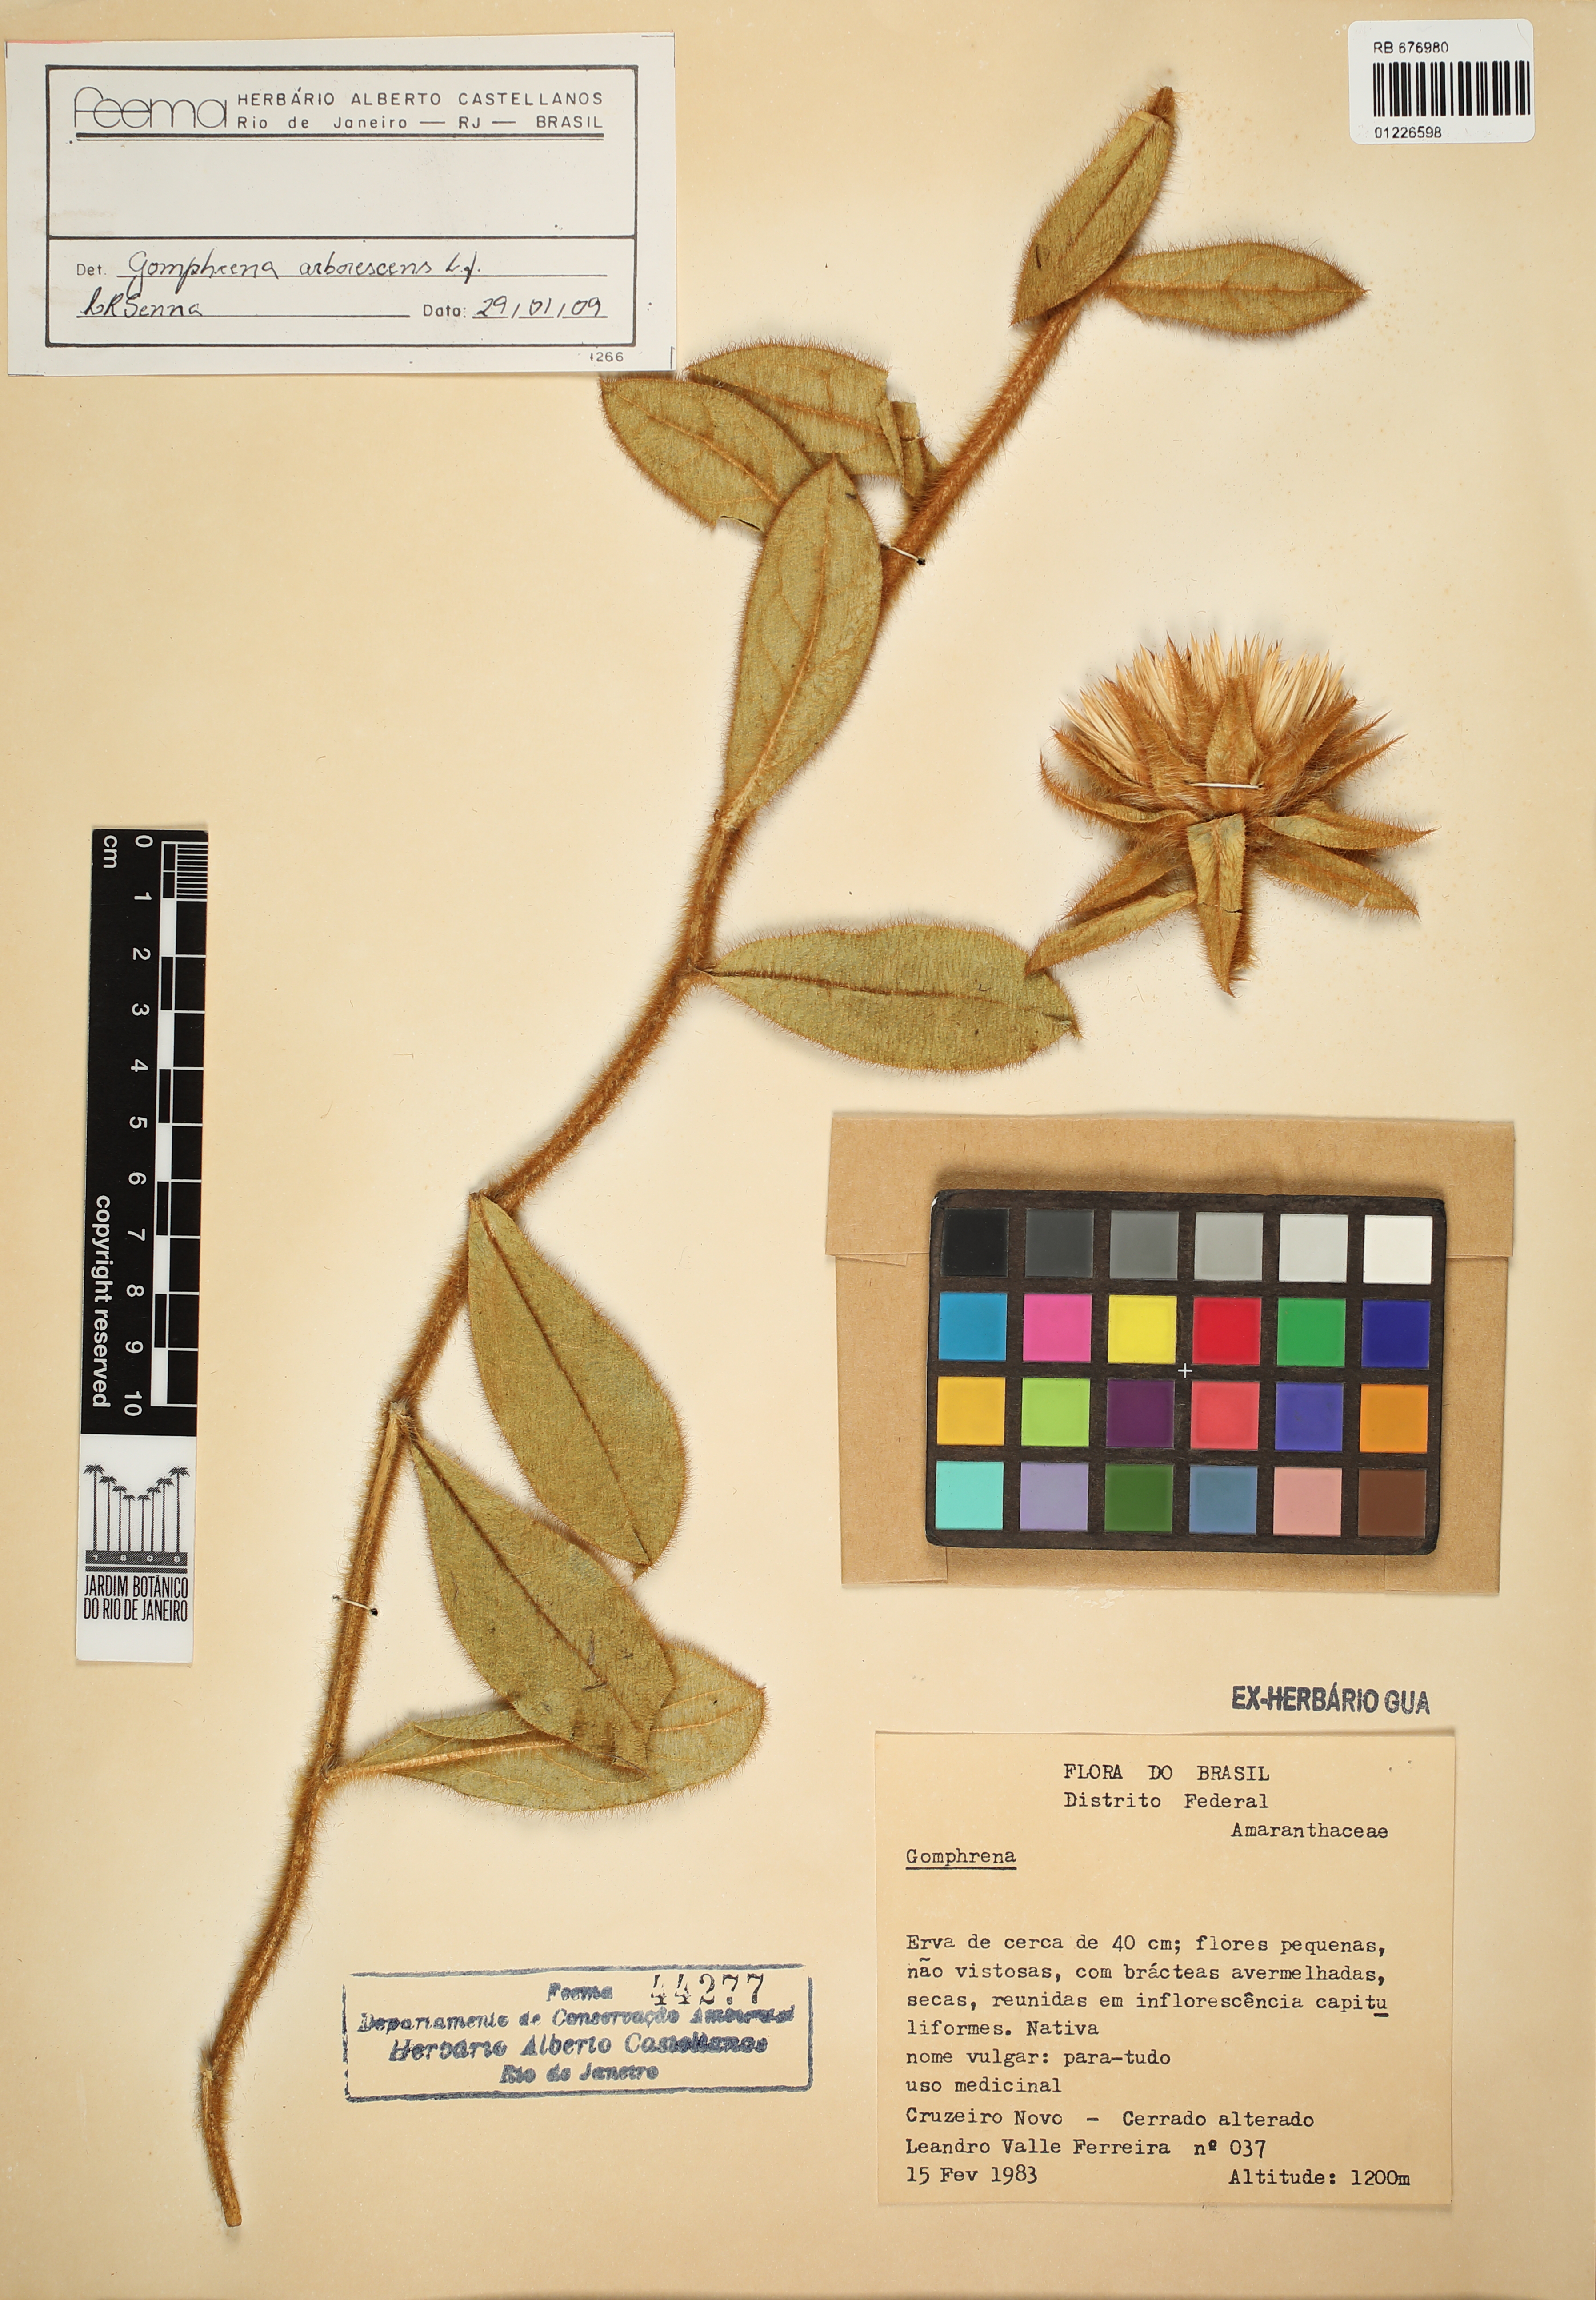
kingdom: Plantae
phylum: Tracheophyta
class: Magnoliopsida
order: Caryophyllales
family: Amaranthaceae
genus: Gomphrena
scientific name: Gomphrena arborescens
